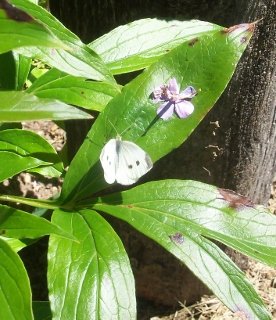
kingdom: Animalia
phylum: Arthropoda
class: Insecta
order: Lepidoptera
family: Pieridae
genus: Pieris
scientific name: Pieris rapae
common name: Cabbage White
